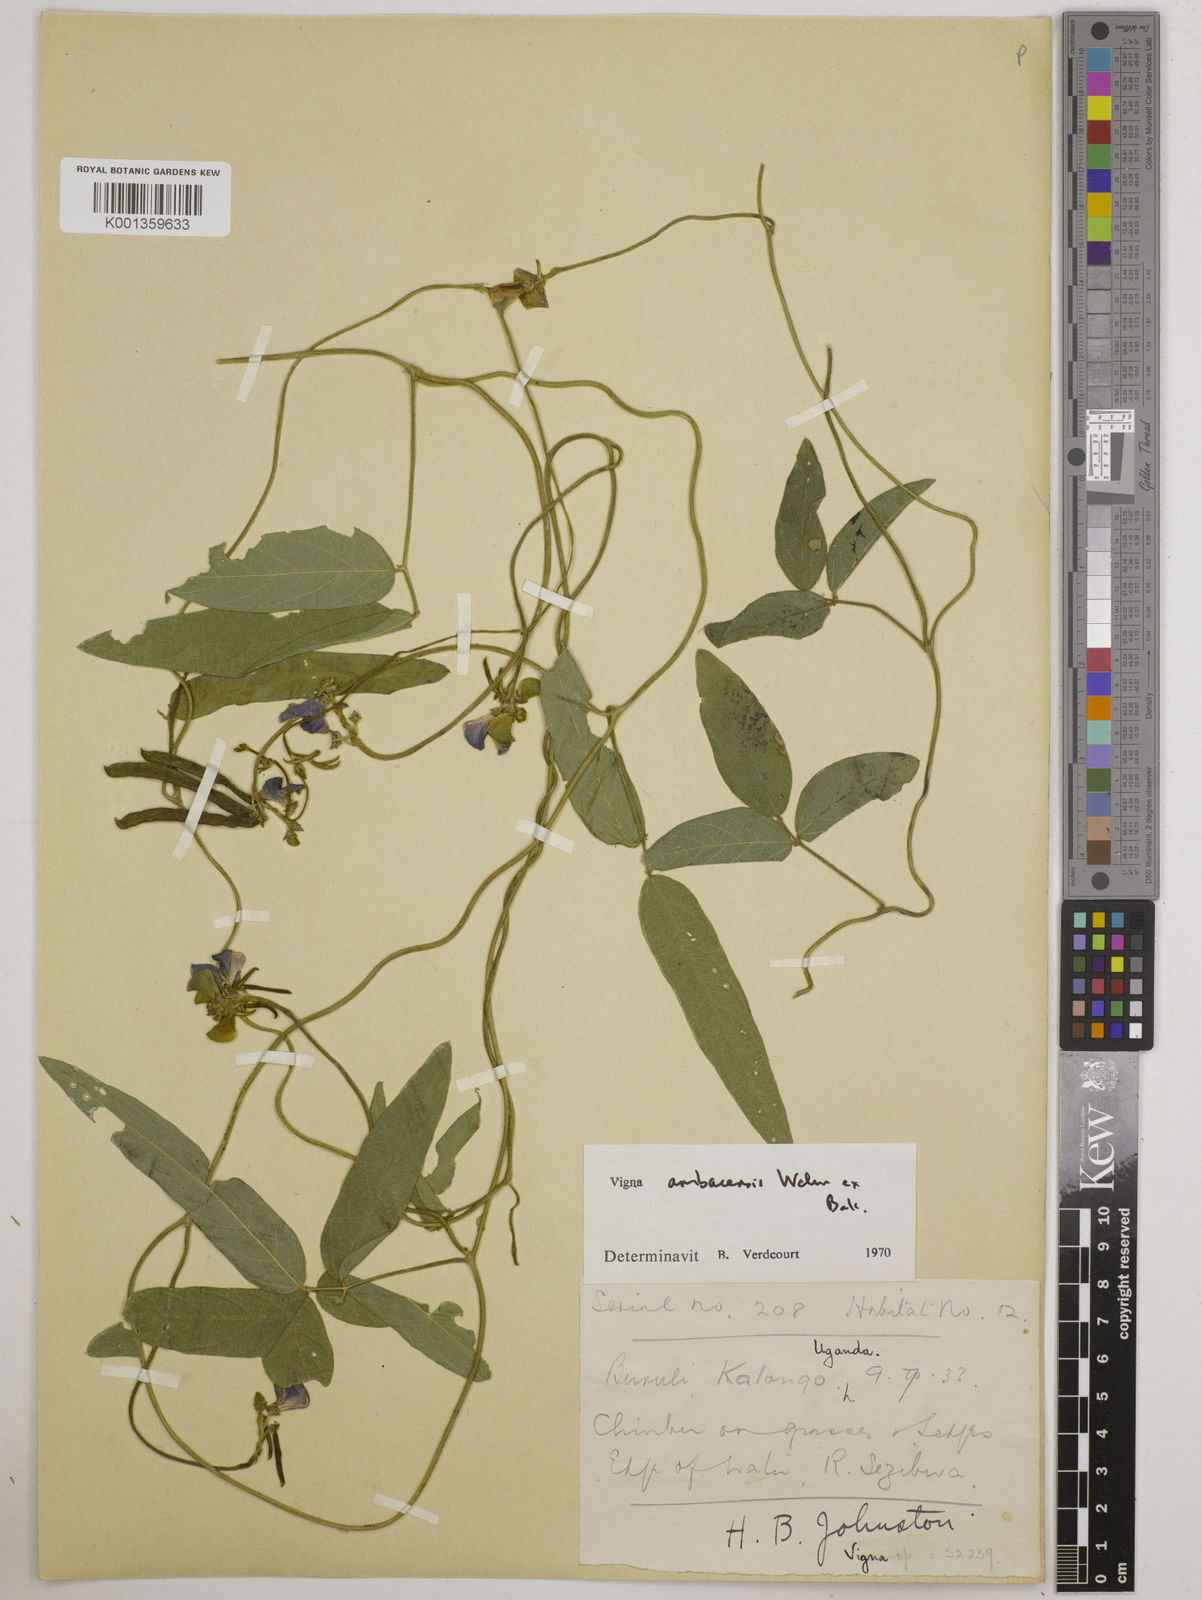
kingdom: Plantae
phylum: Tracheophyta
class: Magnoliopsida
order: Fabales
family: Fabaceae
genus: Vigna
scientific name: Vigna ambacensis
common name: Tsarkiyan zomo
